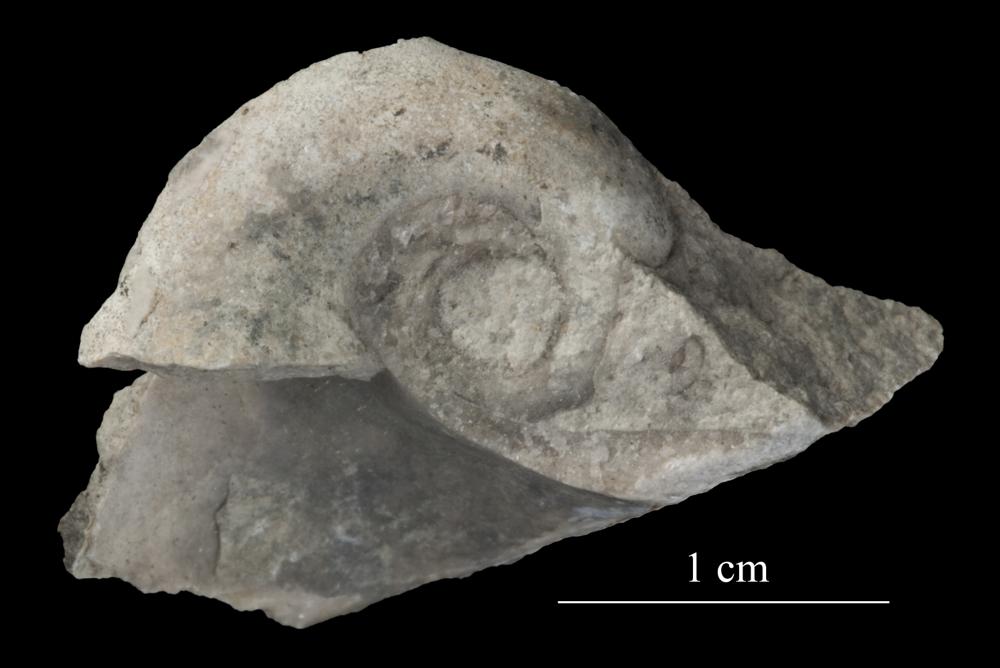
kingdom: Animalia
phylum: Mollusca
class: Gastropoda
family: Bucaniidae
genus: Salpingostoma
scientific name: Salpingostoma Bellerophon megalostoma
